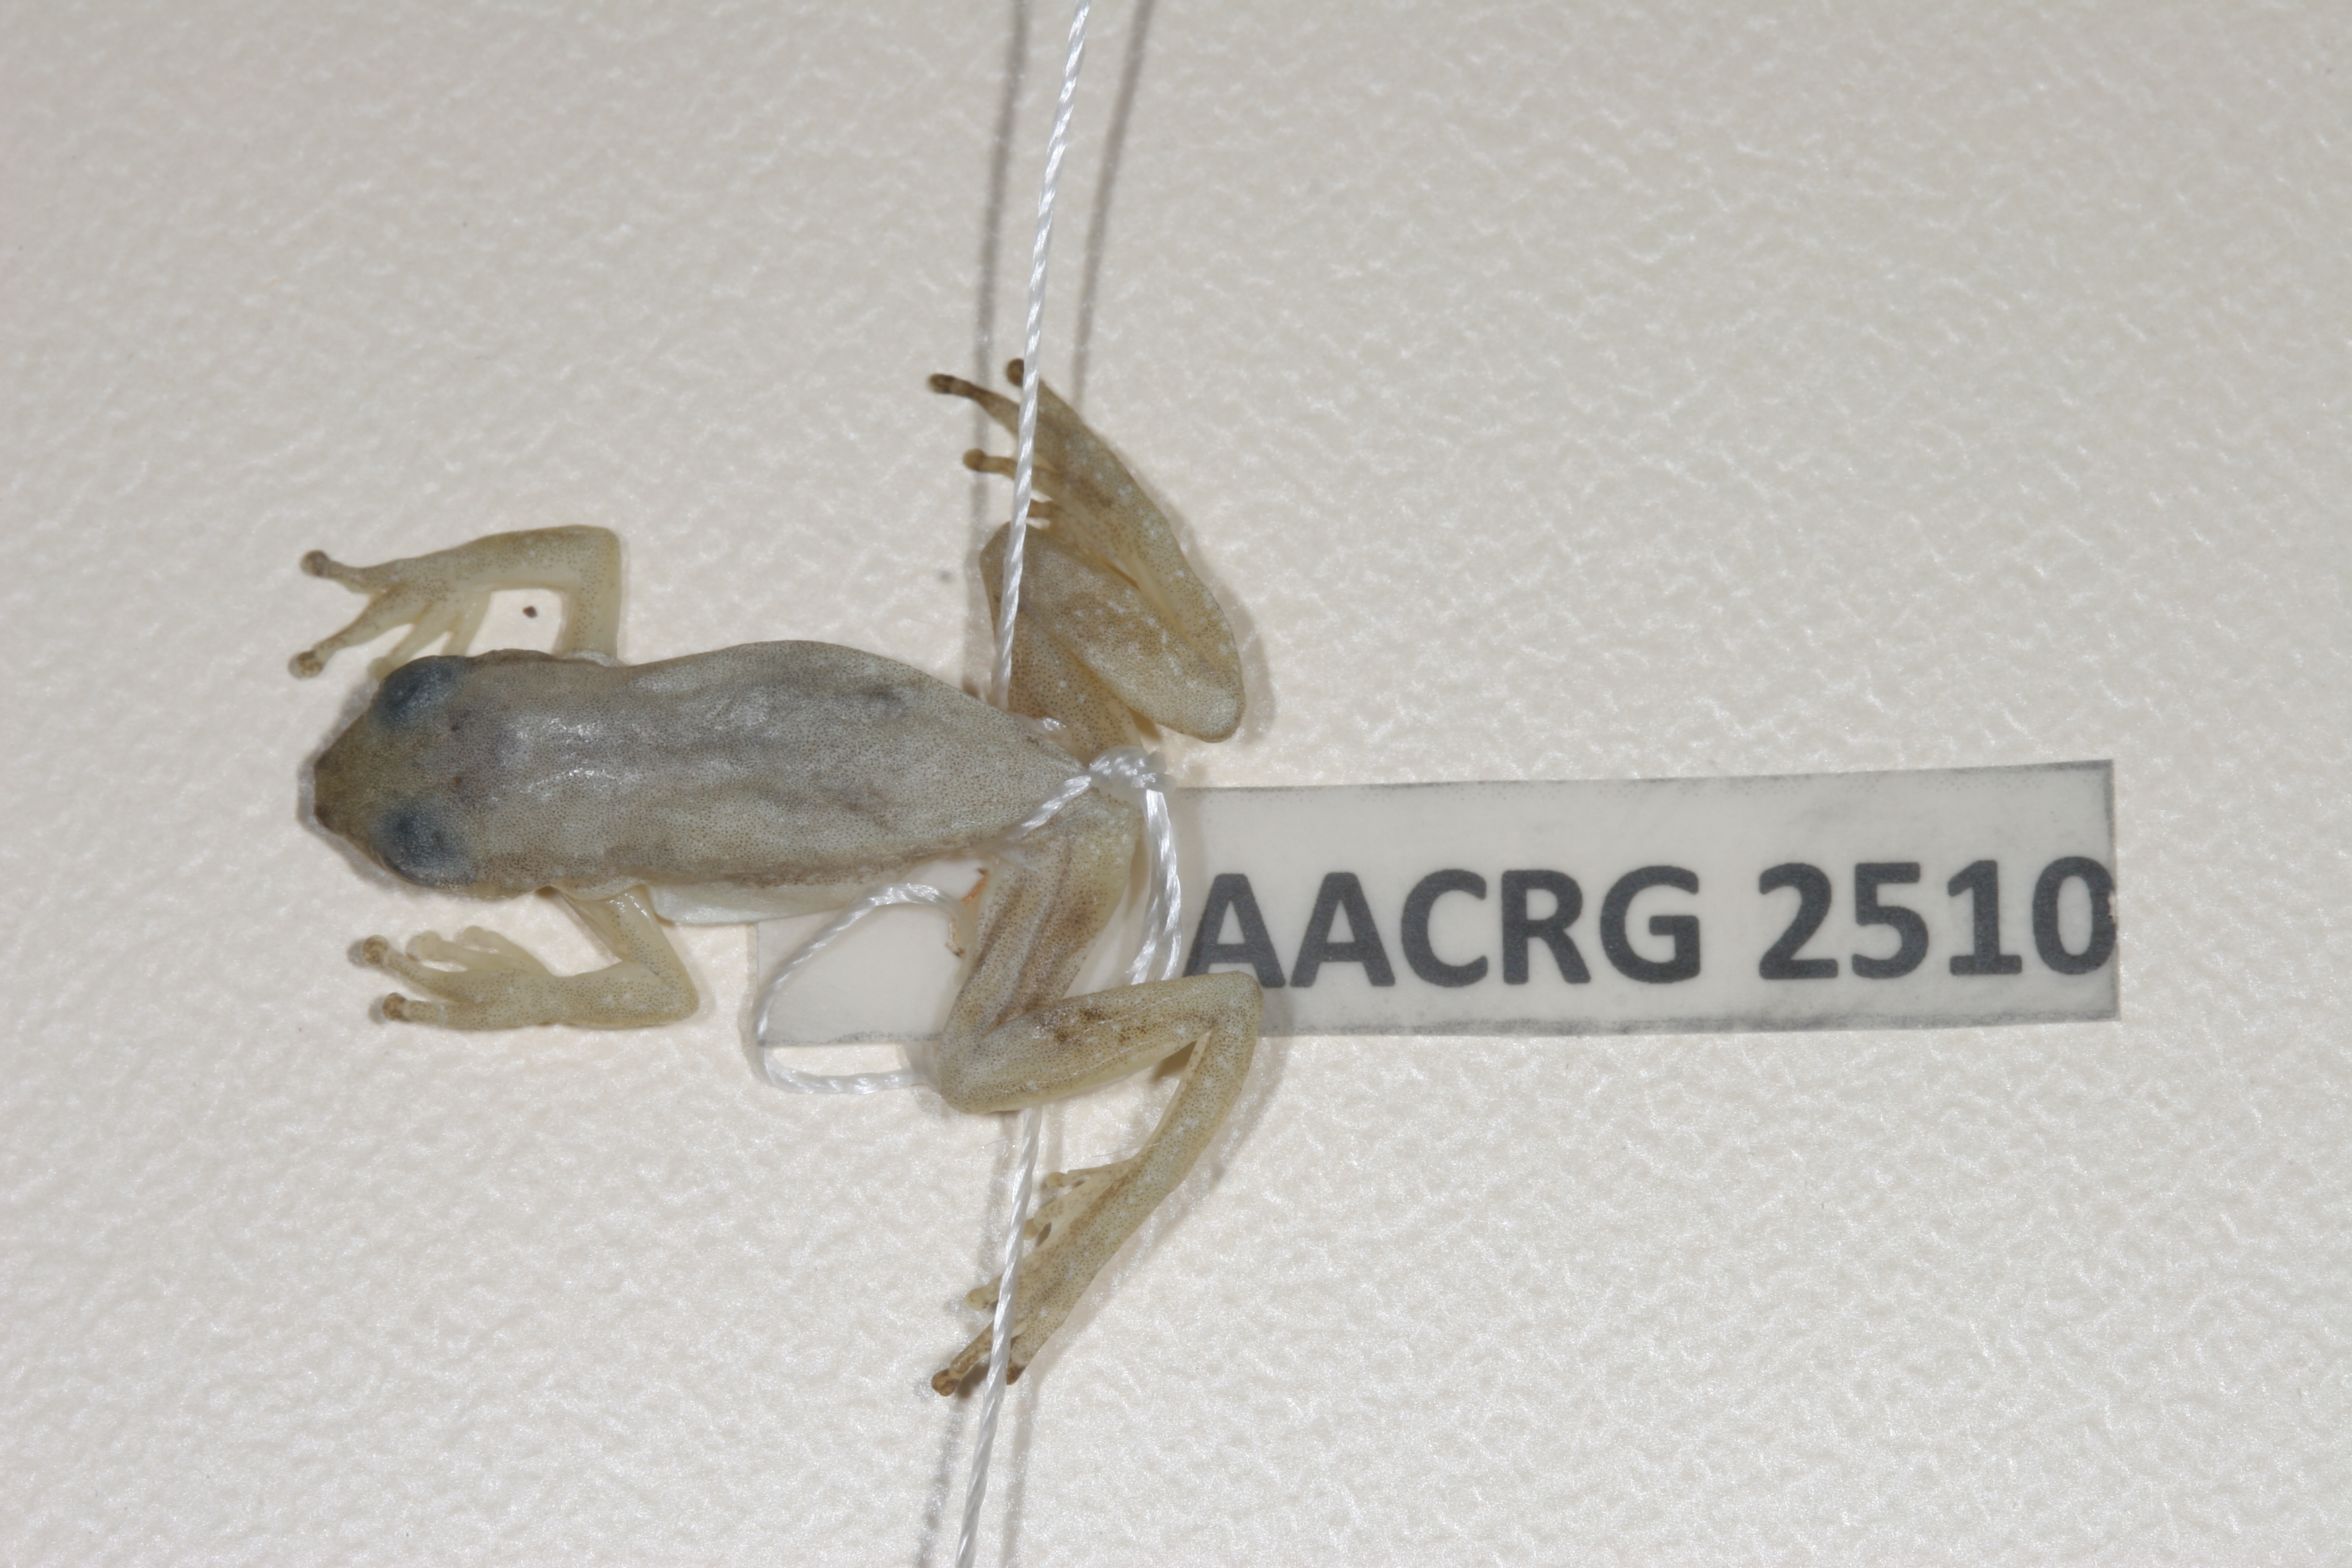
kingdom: Animalia
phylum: Chordata
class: Amphibia
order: Anura
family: Hyperoliidae
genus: Afrixalus
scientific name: Afrixalus aureus
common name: Golden banana frog
